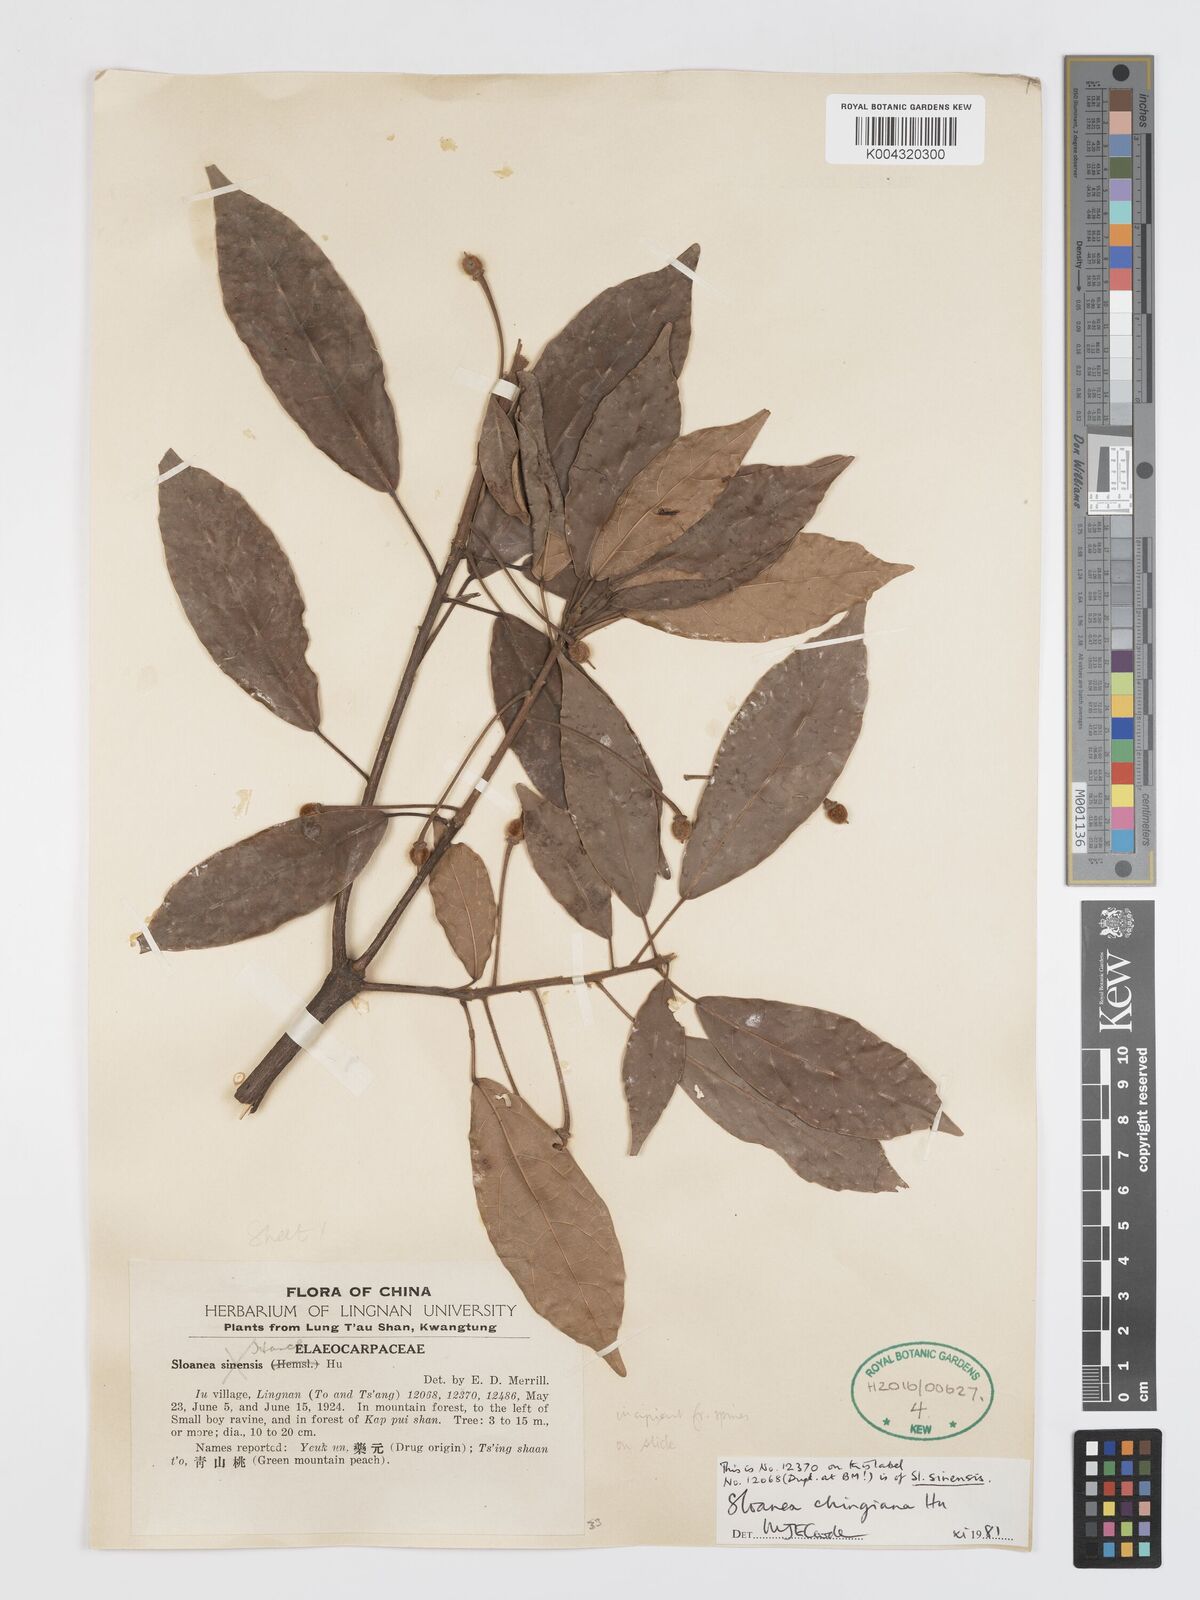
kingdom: Plantae
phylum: Tracheophyta
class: Magnoliopsida
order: Oxalidales
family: Elaeocarpaceae
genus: Sloanea
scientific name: Sloanea chingiana
